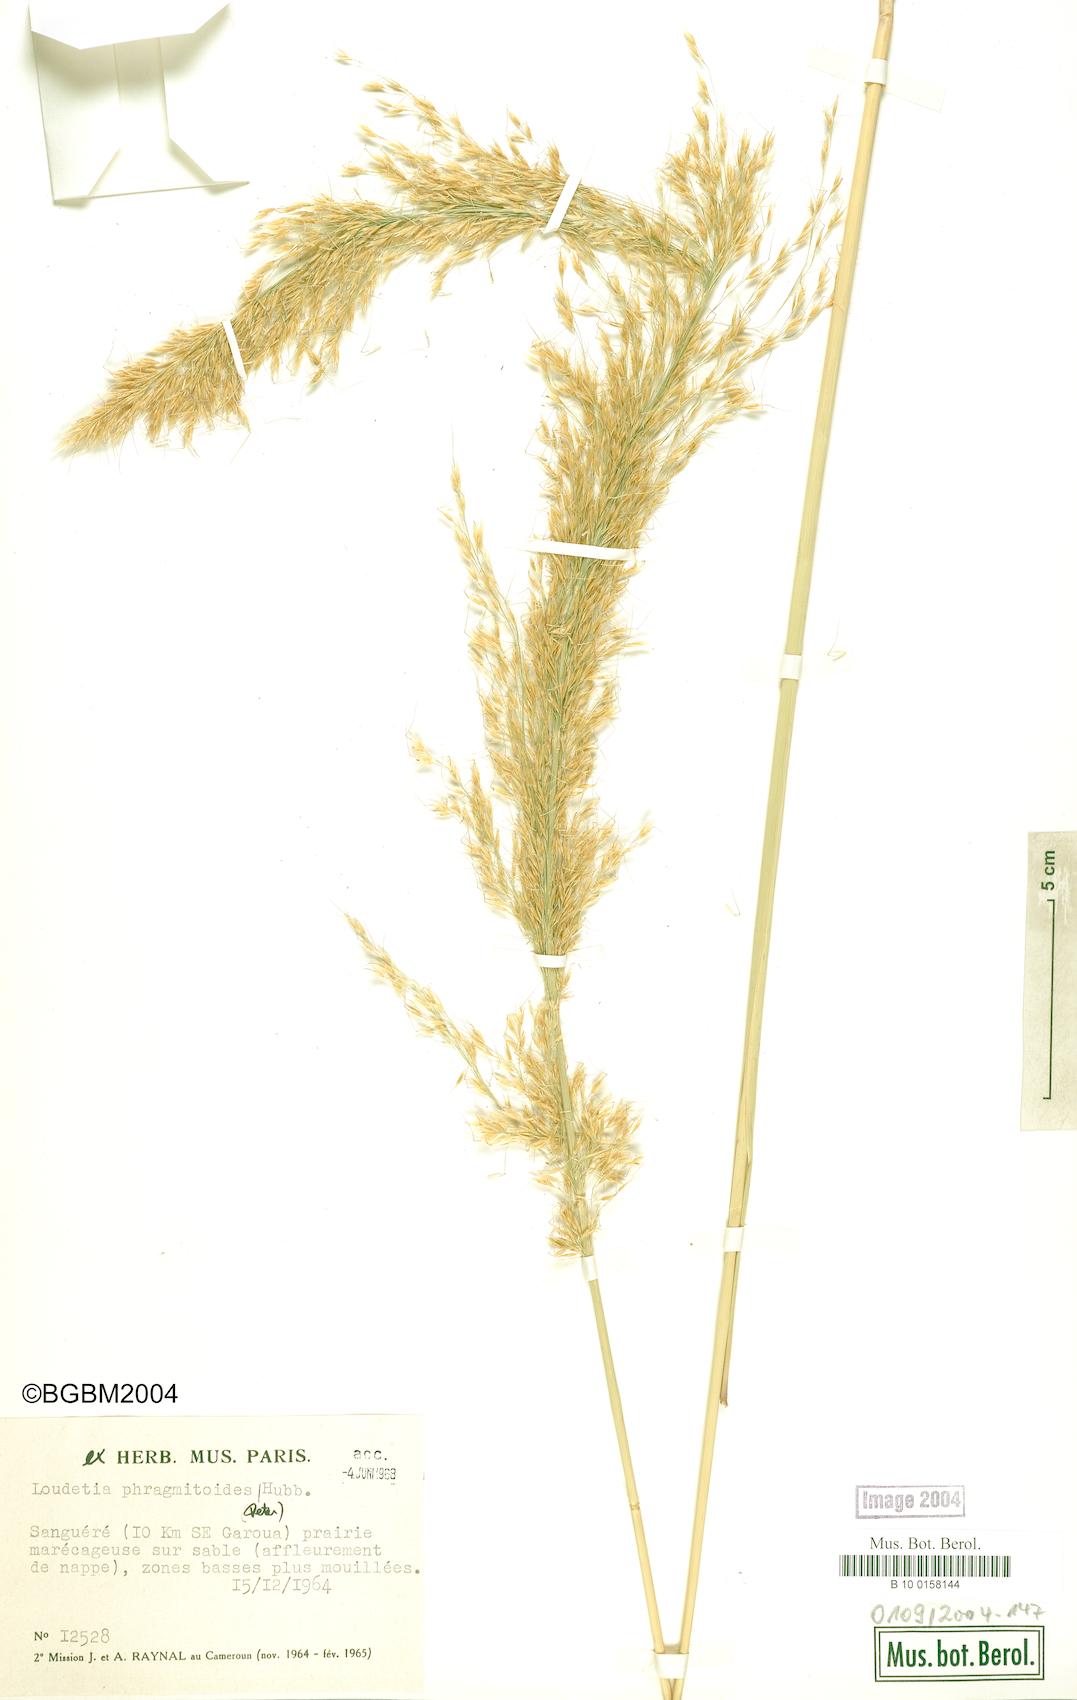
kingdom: Plantae
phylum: Tracheophyta
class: Liliopsida
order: Poales
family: Poaceae
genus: Loudetia
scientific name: Loudetia phragmitoides
